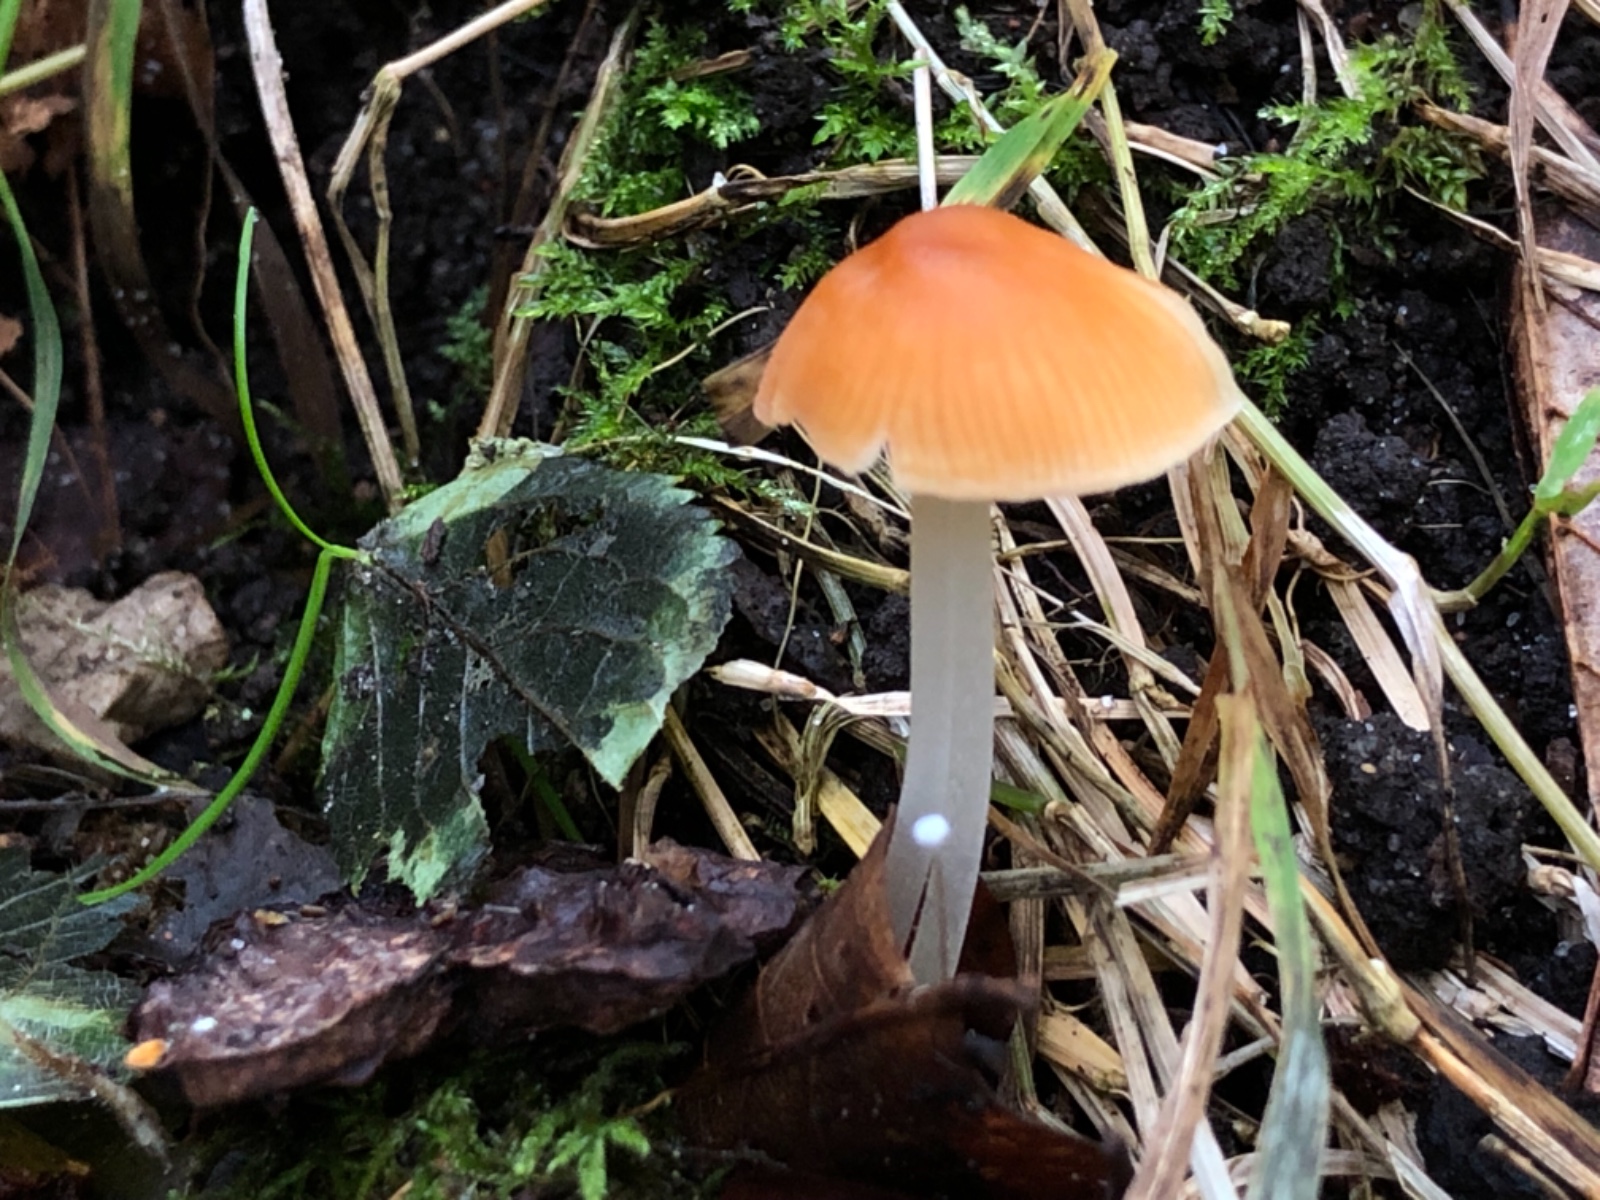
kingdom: Fungi
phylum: Basidiomycota
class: Agaricomycetes
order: Agaricales
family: Mycenaceae
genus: Atheniella
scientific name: Atheniella leptophylla
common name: abrikos-huesvamp
